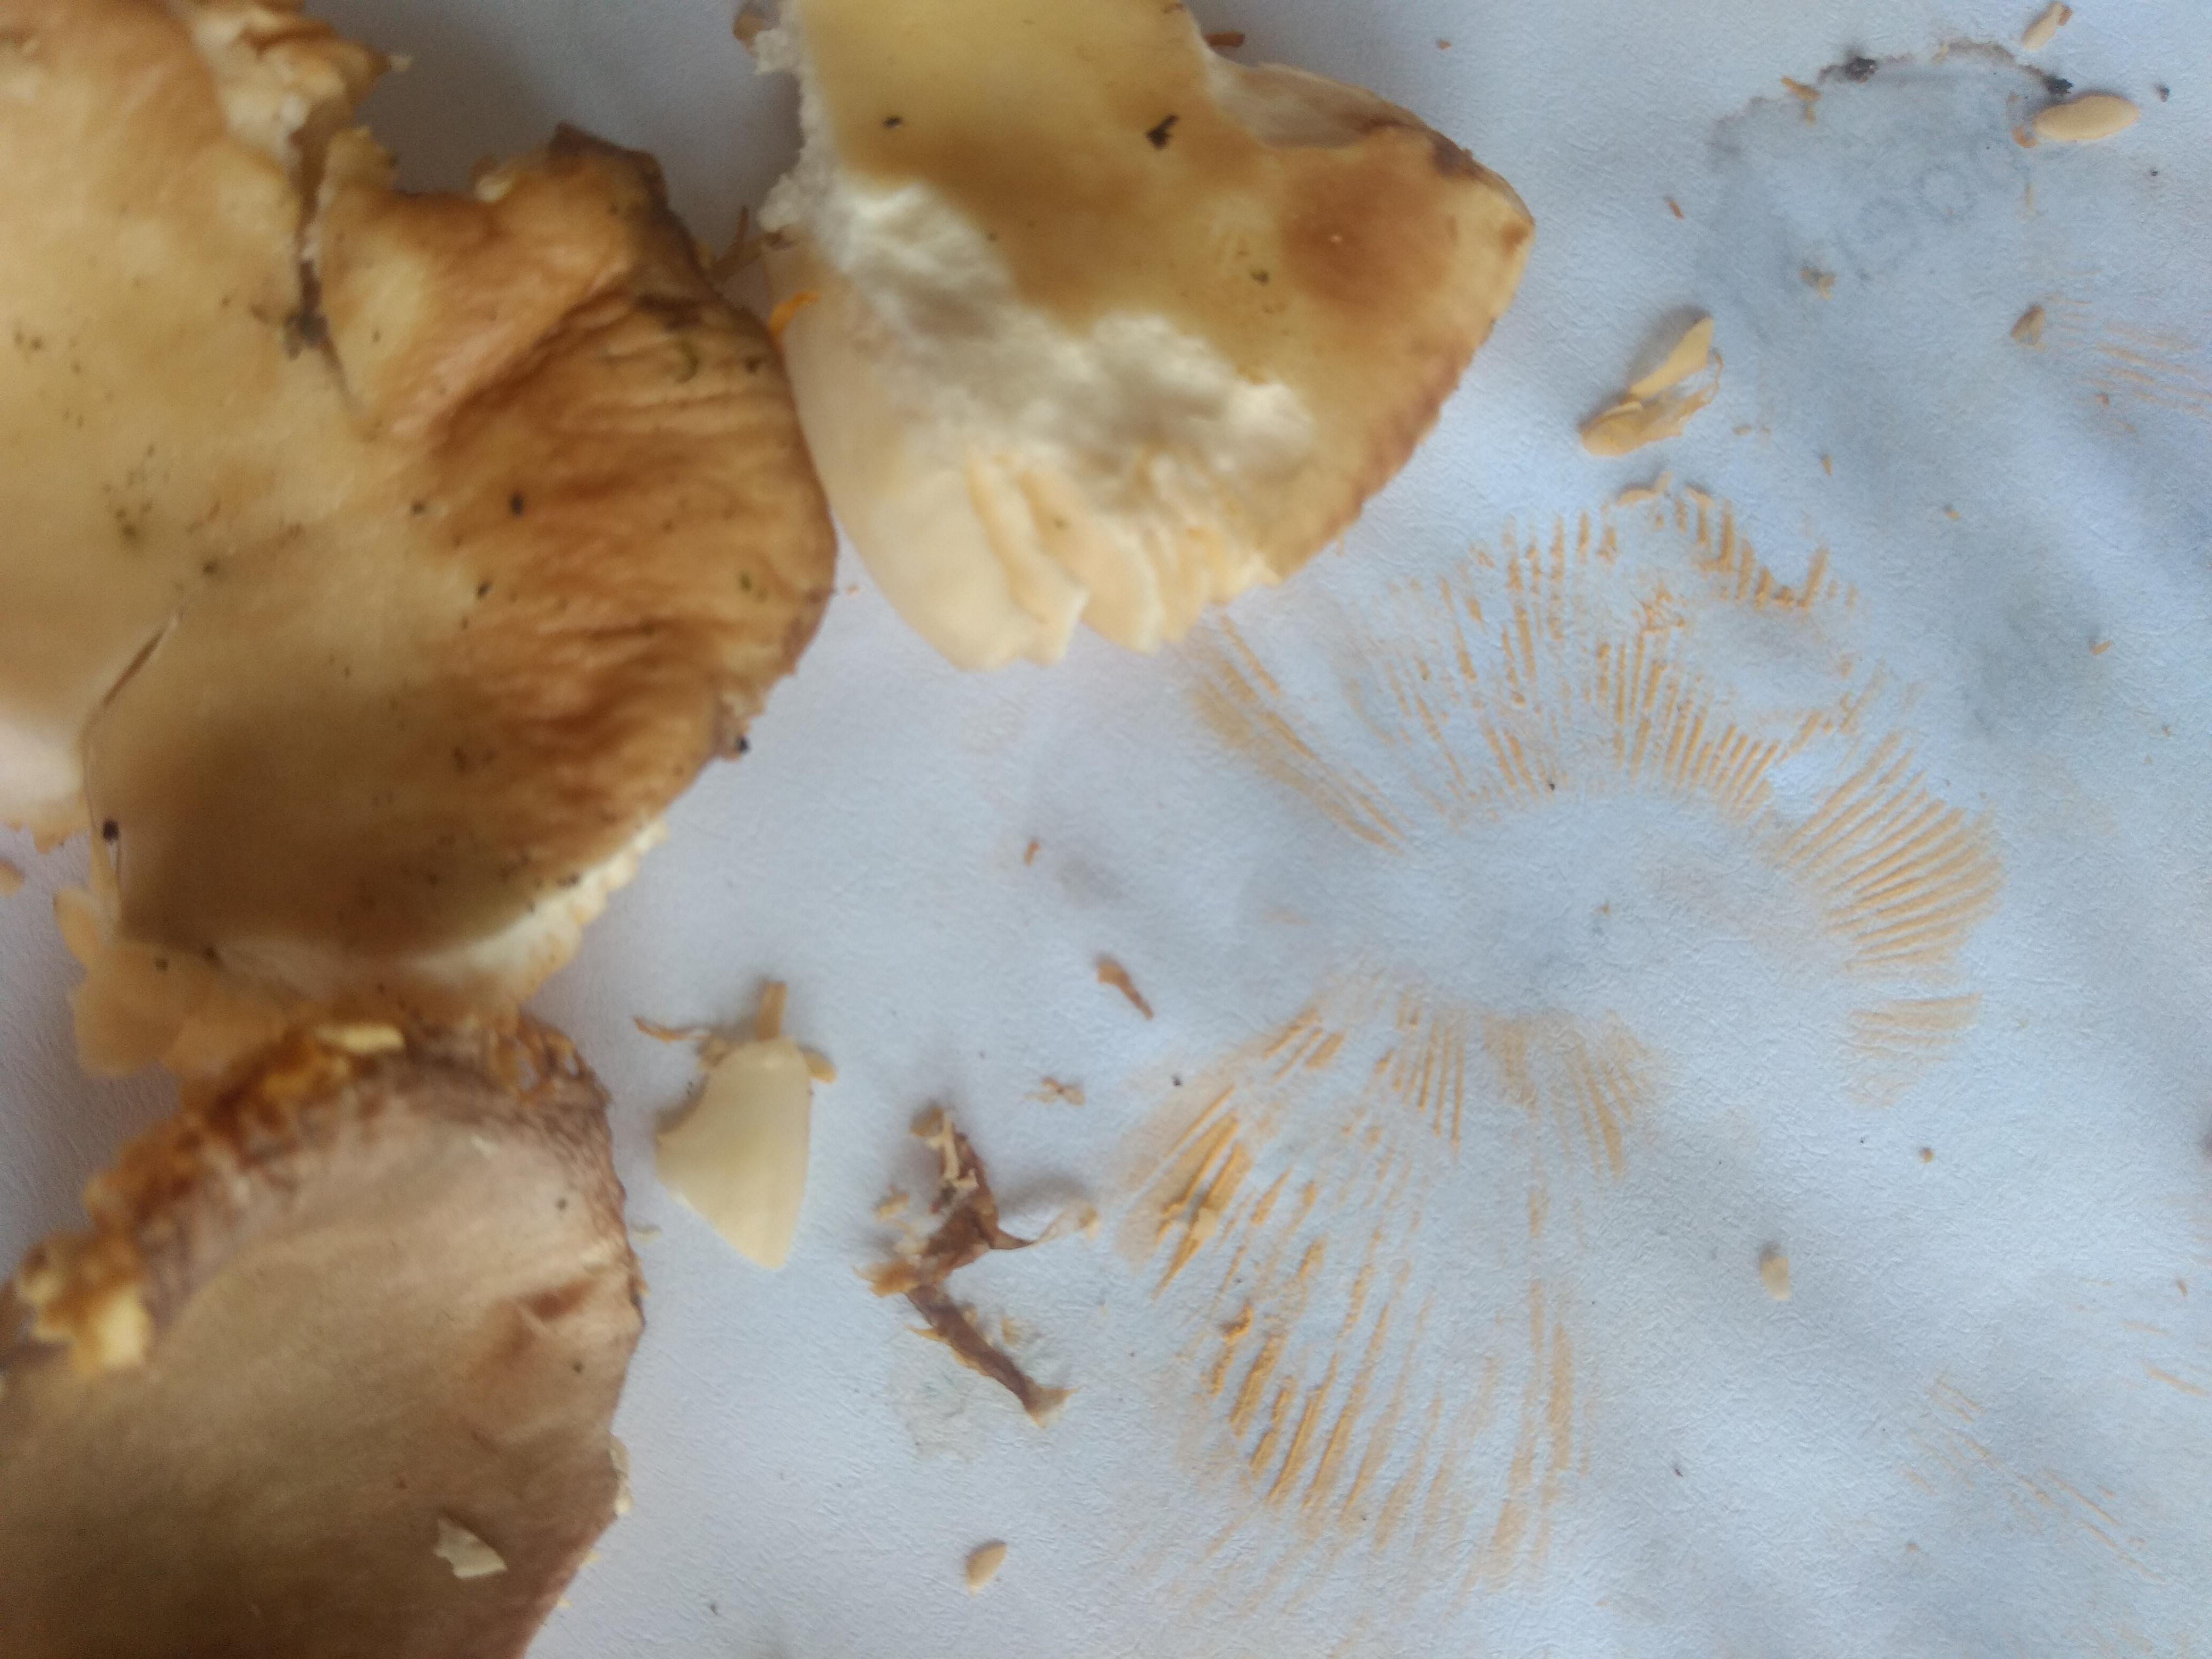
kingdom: Fungi
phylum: Basidiomycota
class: Agaricomycetes
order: Russulales
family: Russulaceae
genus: Russula
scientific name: Russula
